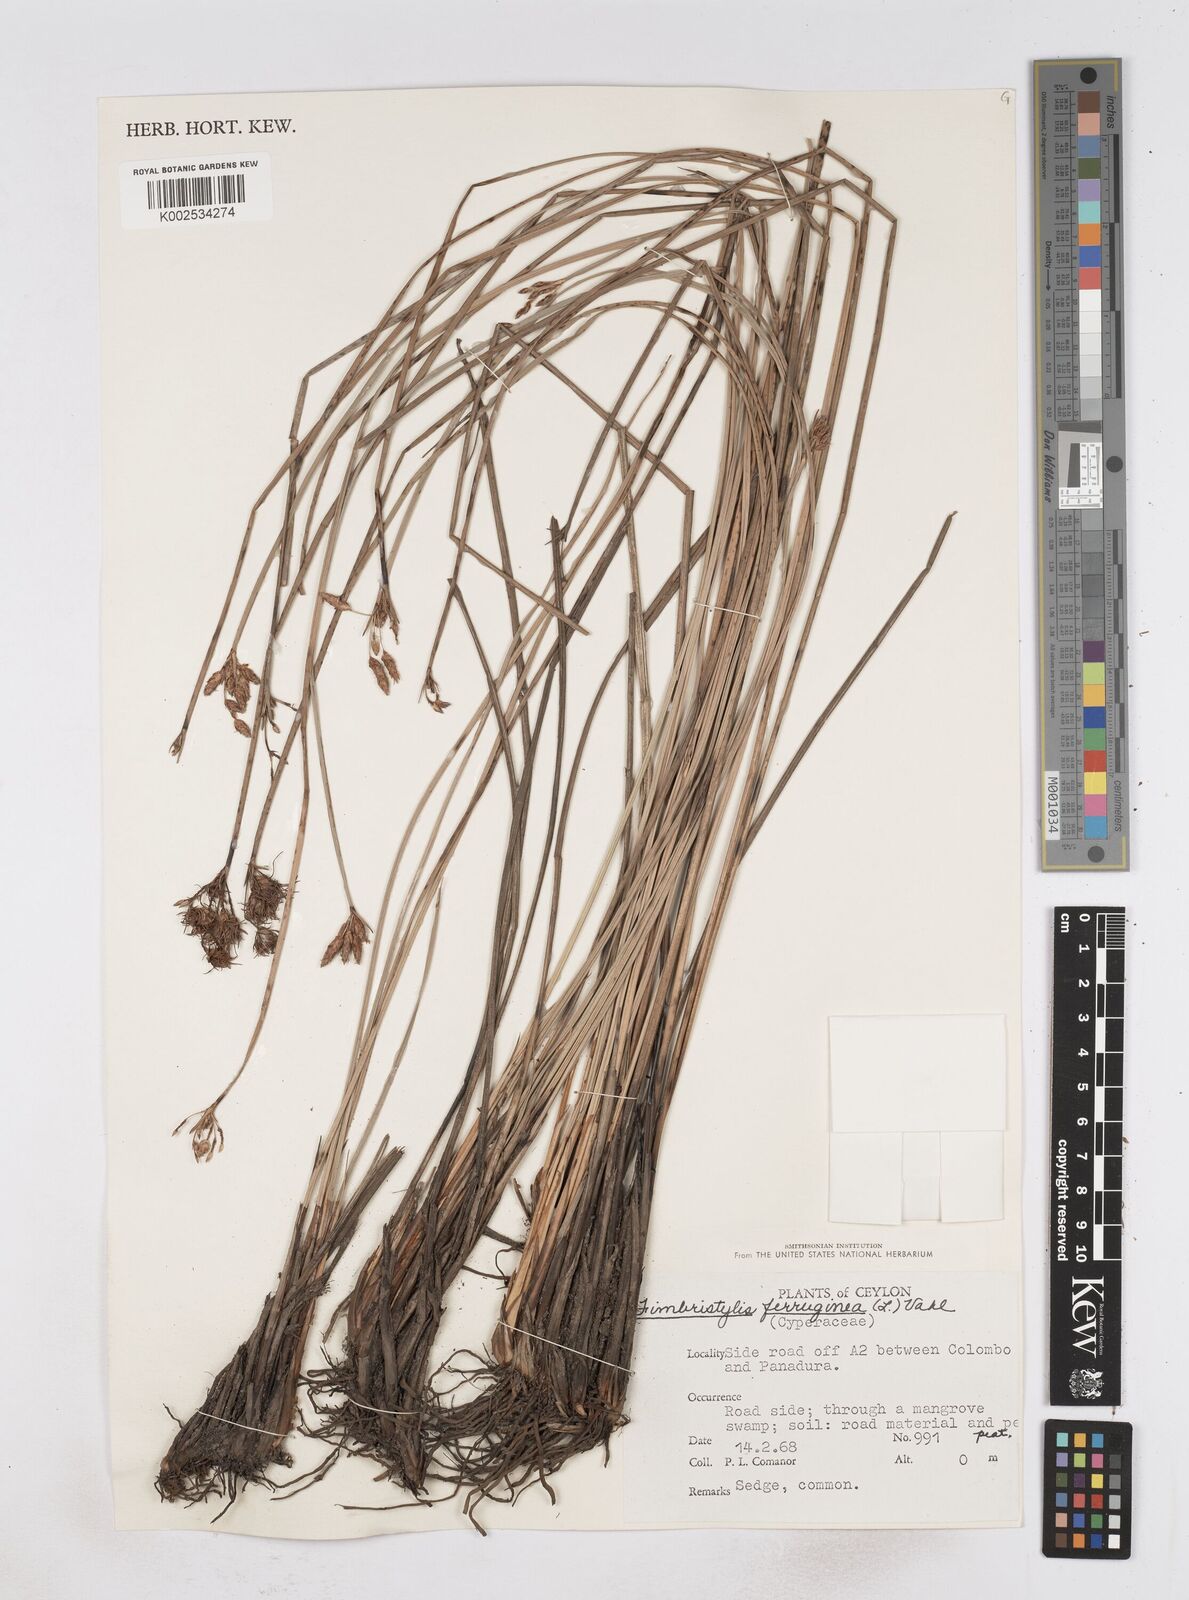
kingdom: Plantae
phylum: Tracheophyta
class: Liliopsida
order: Poales
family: Cyperaceae
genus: Fimbristylis
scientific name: Fimbristylis ferruginea
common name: West indian fimbry
